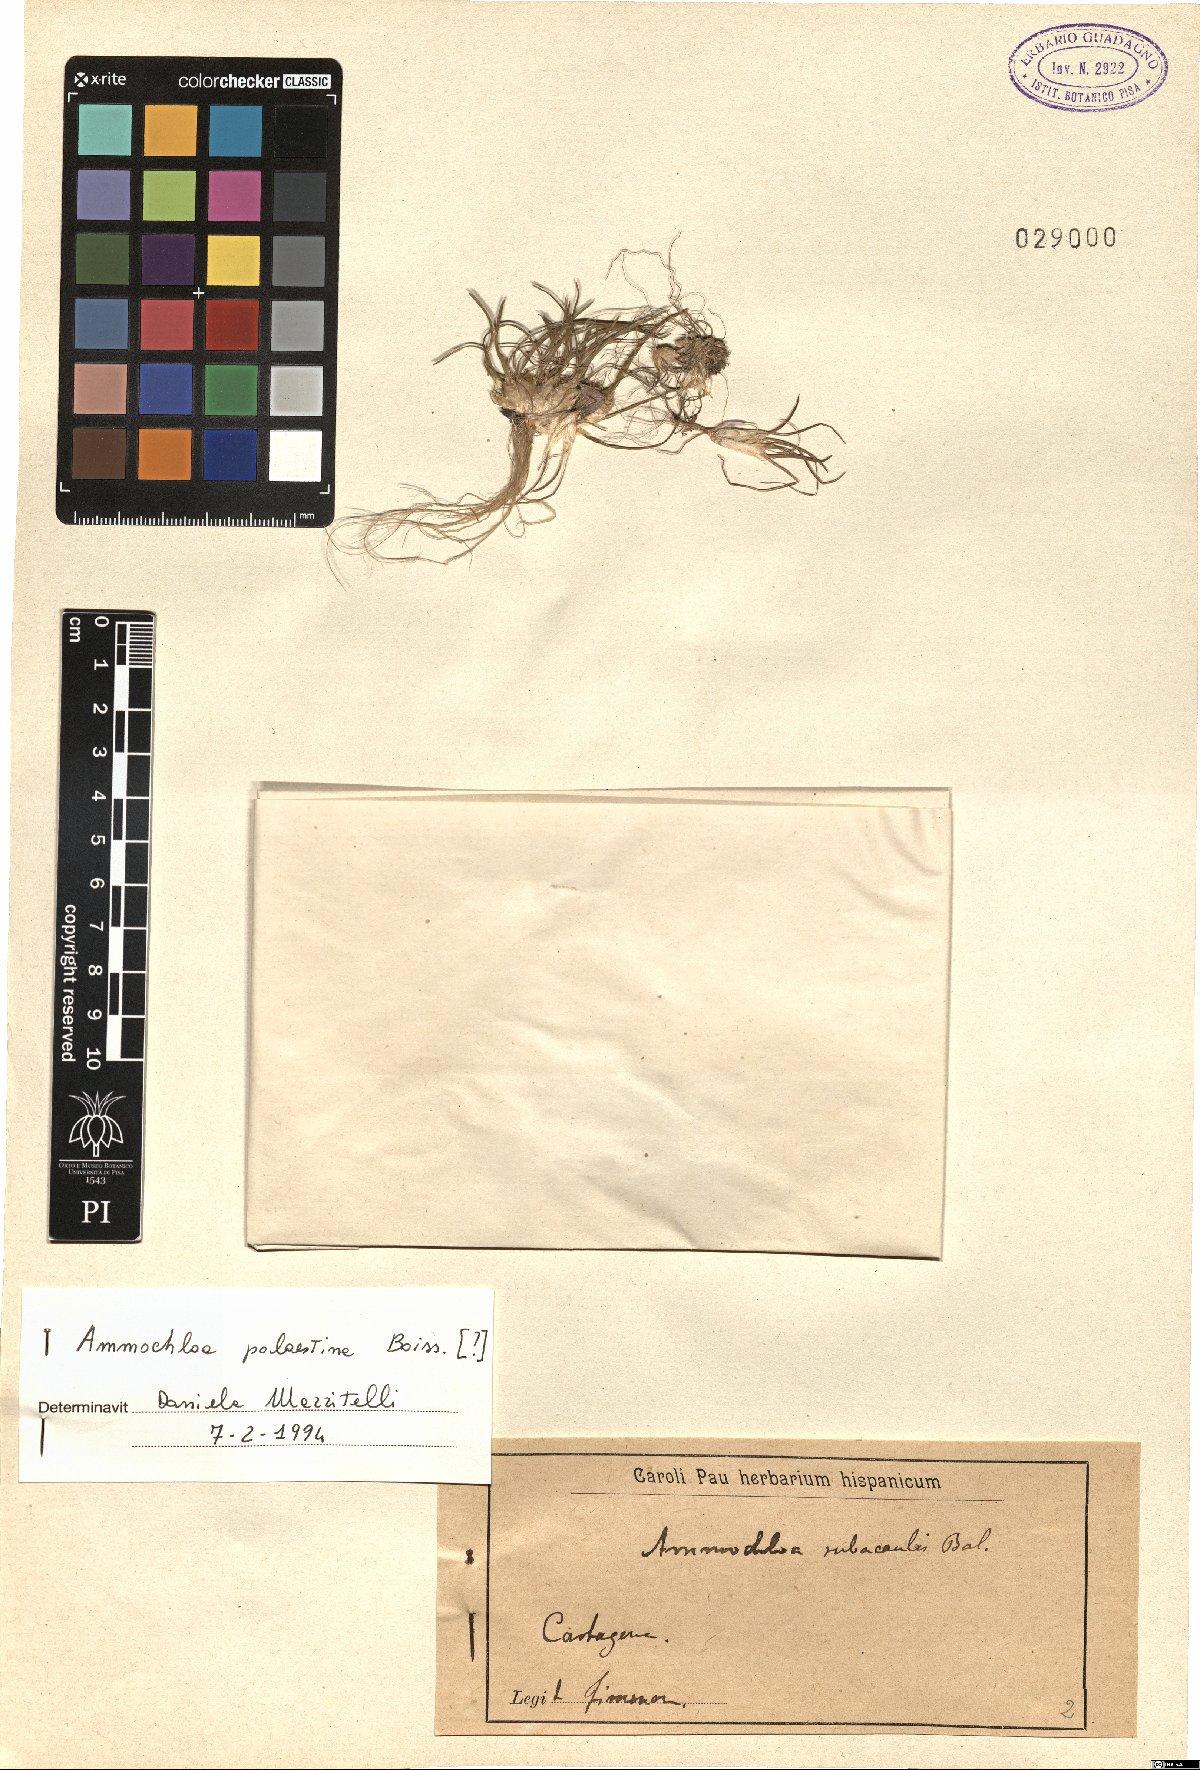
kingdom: Plantae
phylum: Tracheophyta
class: Liliopsida
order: Poales
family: Poaceae
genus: Ammochloa
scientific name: Ammochloa palaestina
